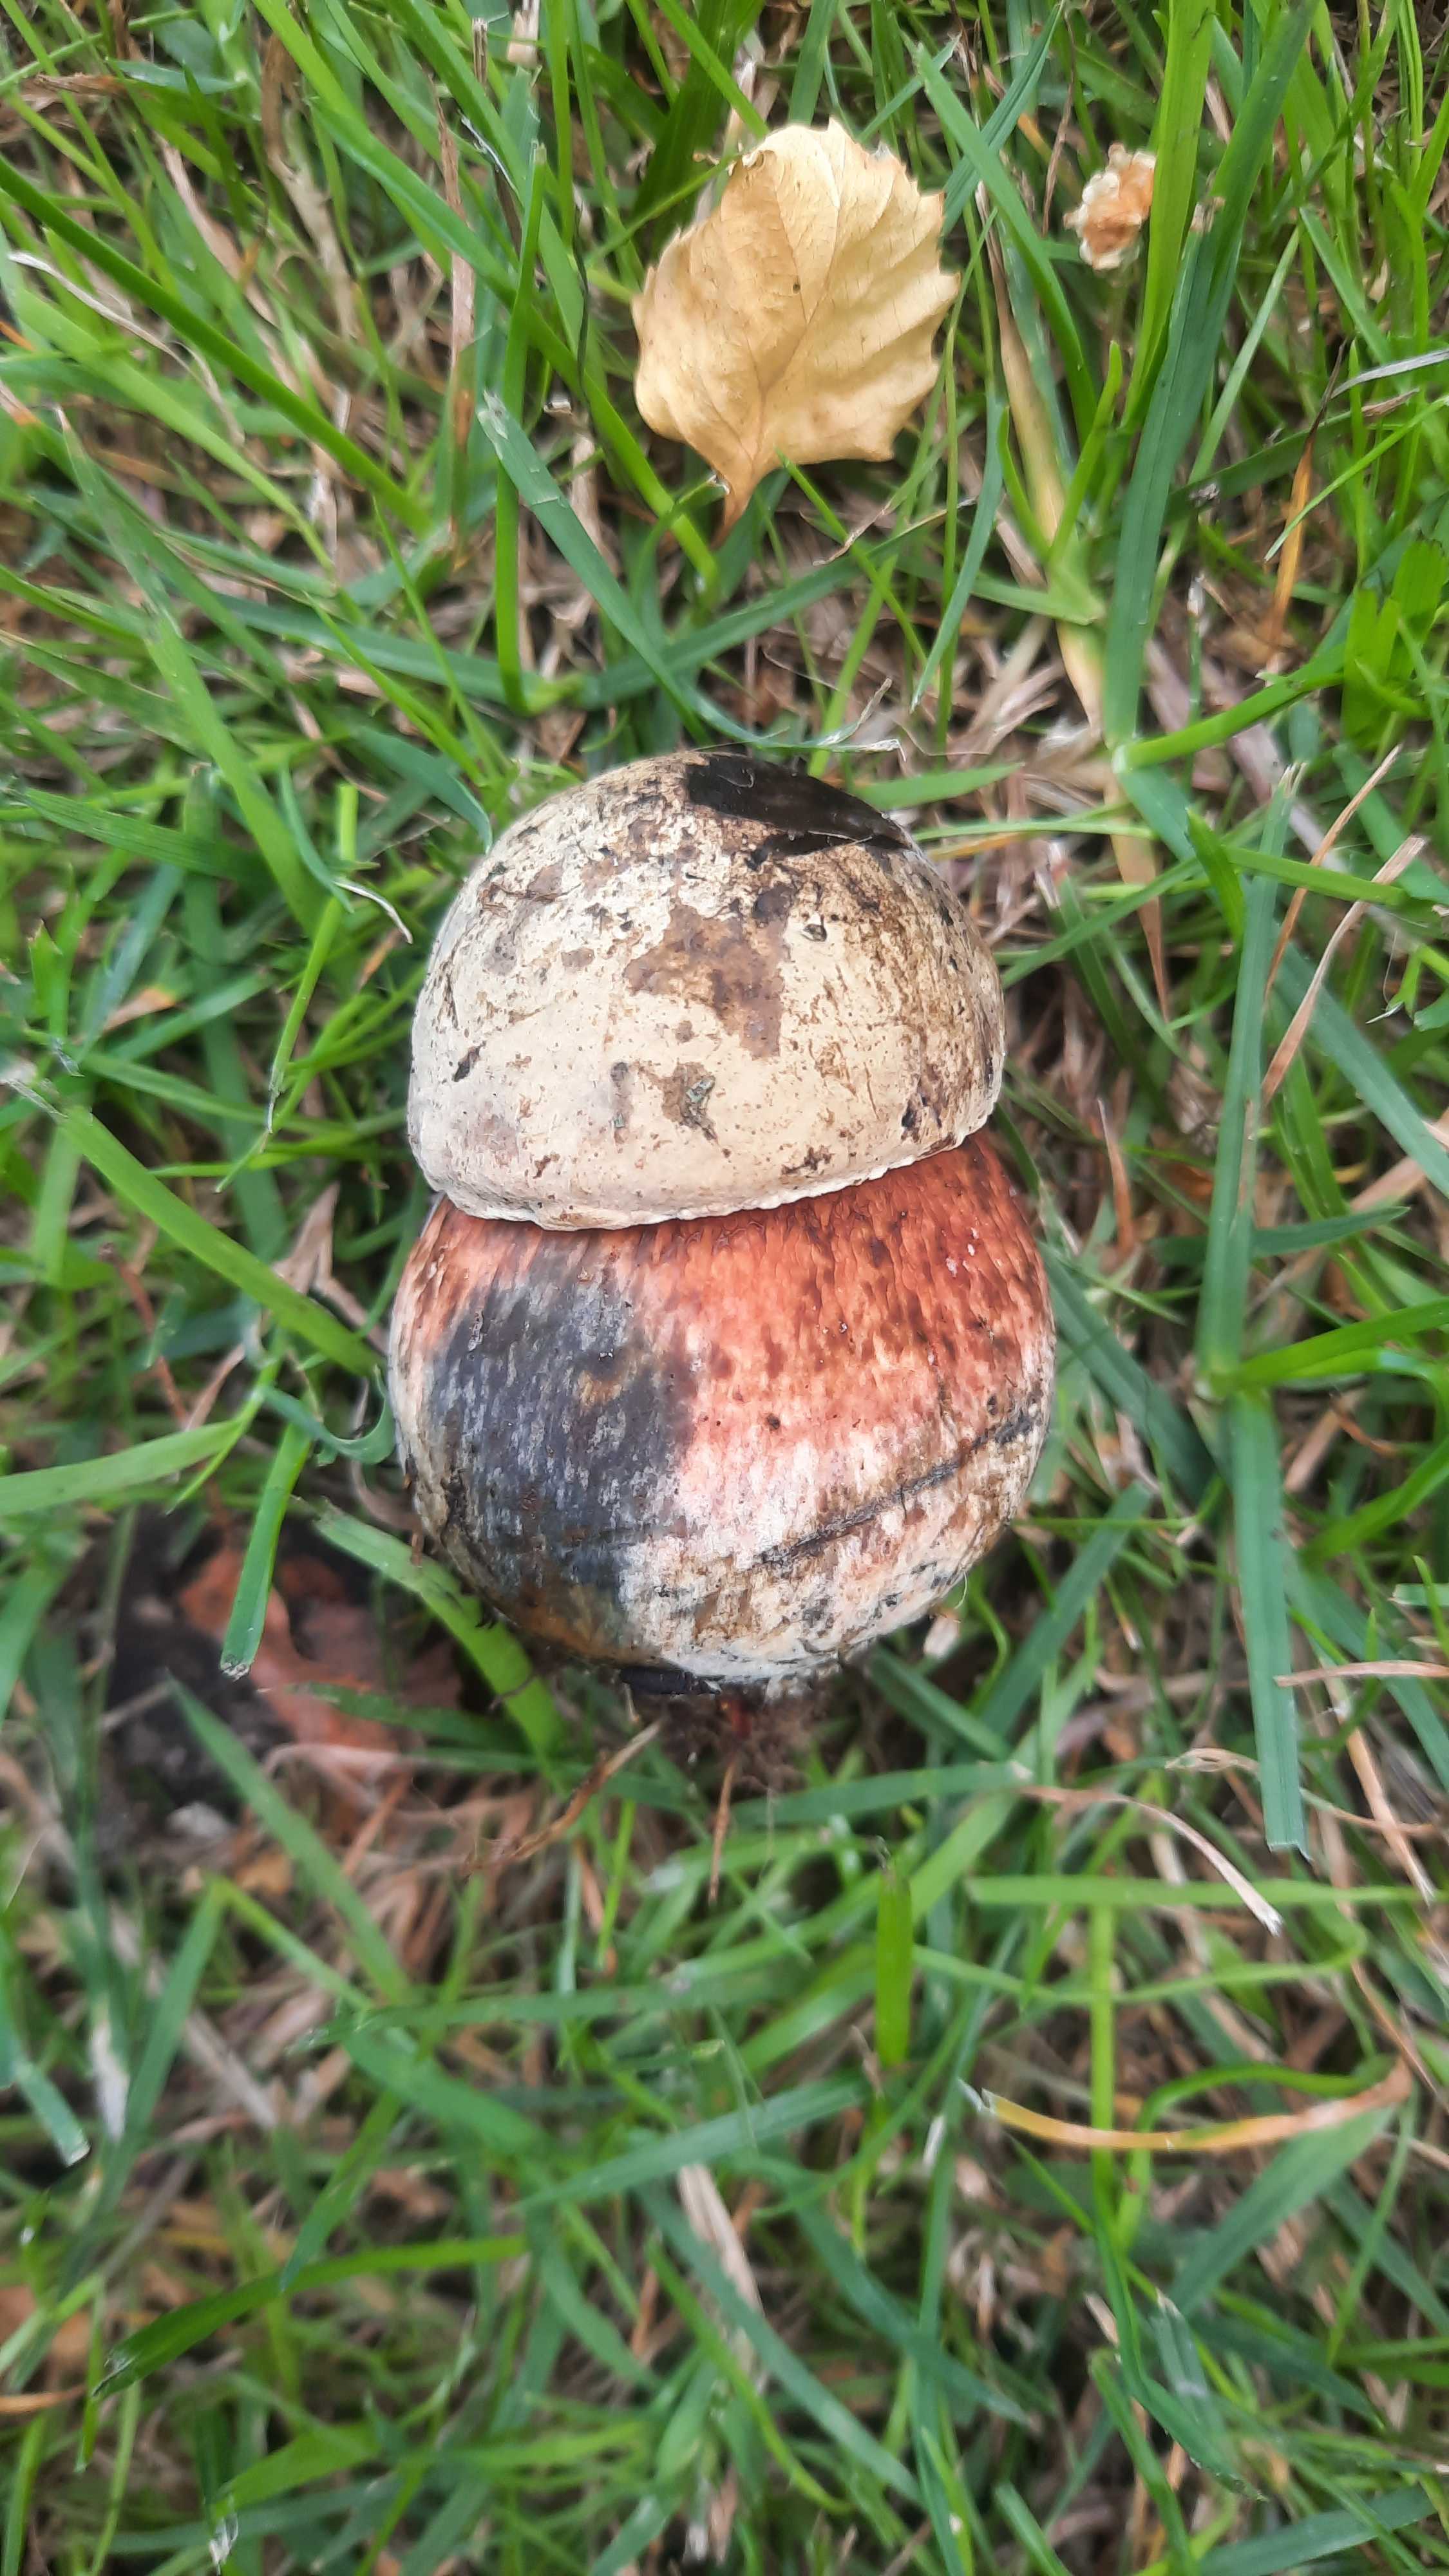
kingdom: Fungi
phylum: Basidiomycota
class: Agaricomycetes
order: Boletales
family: Boletaceae
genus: Suillellus
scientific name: Suillellus luridus
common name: netstokket indigorørhat
